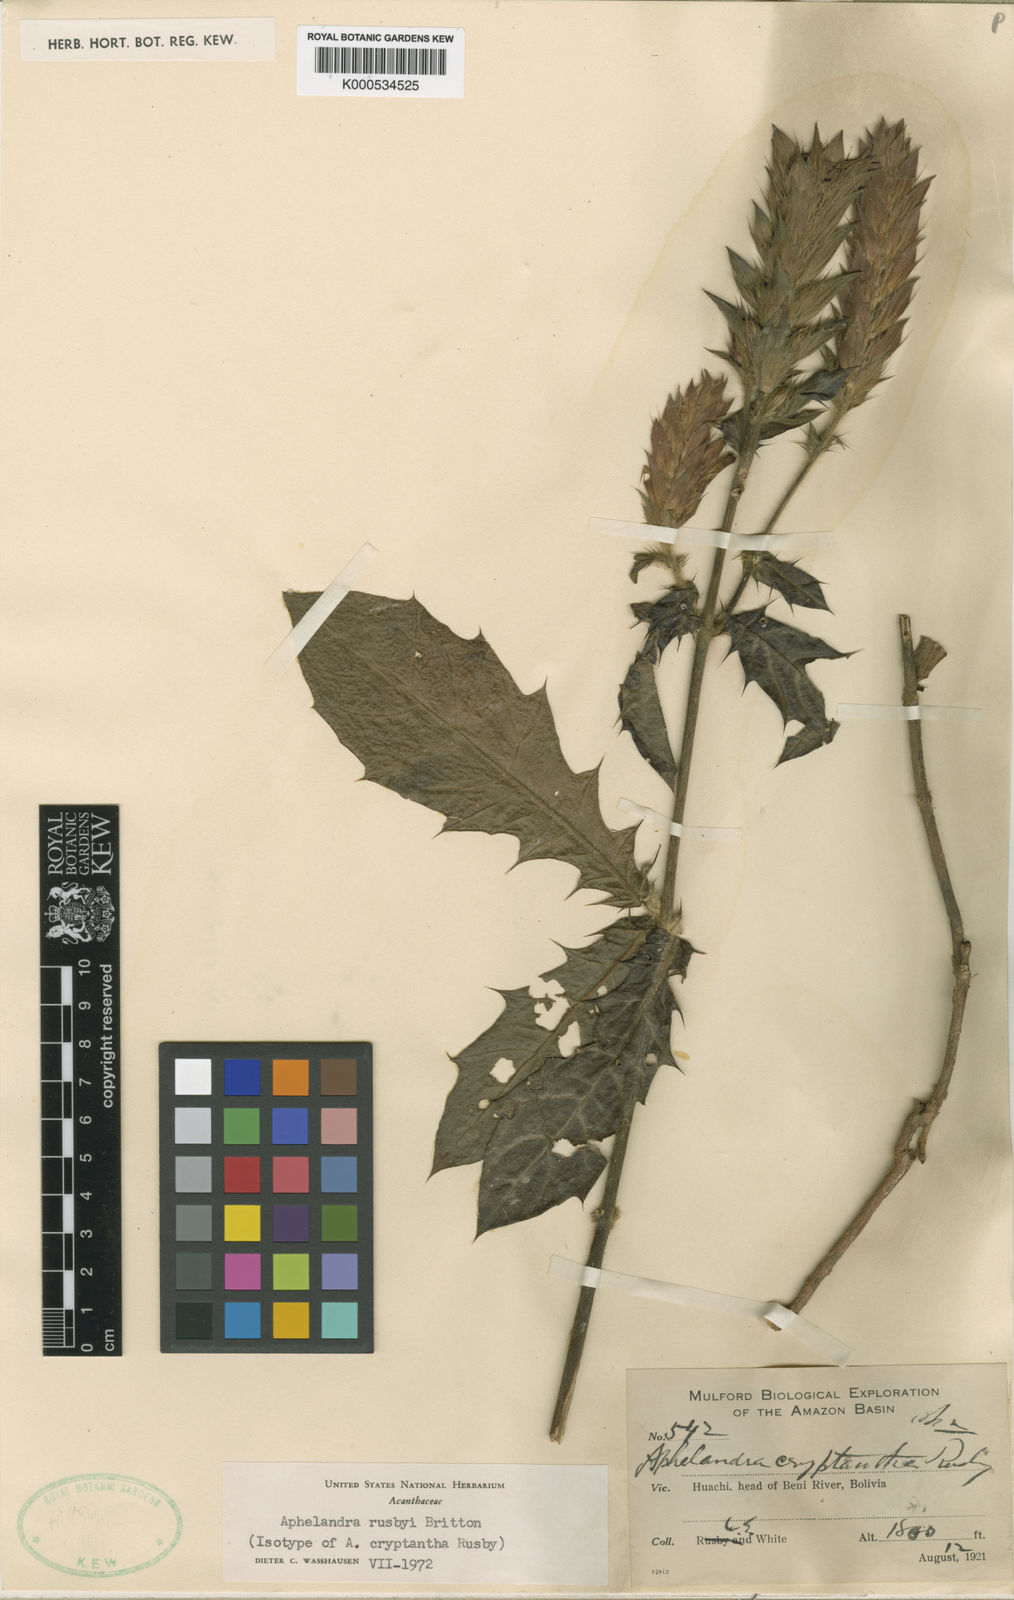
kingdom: Plantae
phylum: Tracheophyta
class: Magnoliopsida
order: Lamiales
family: Acanthaceae
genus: Aphelandra
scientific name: Aphelandra rusbyi
